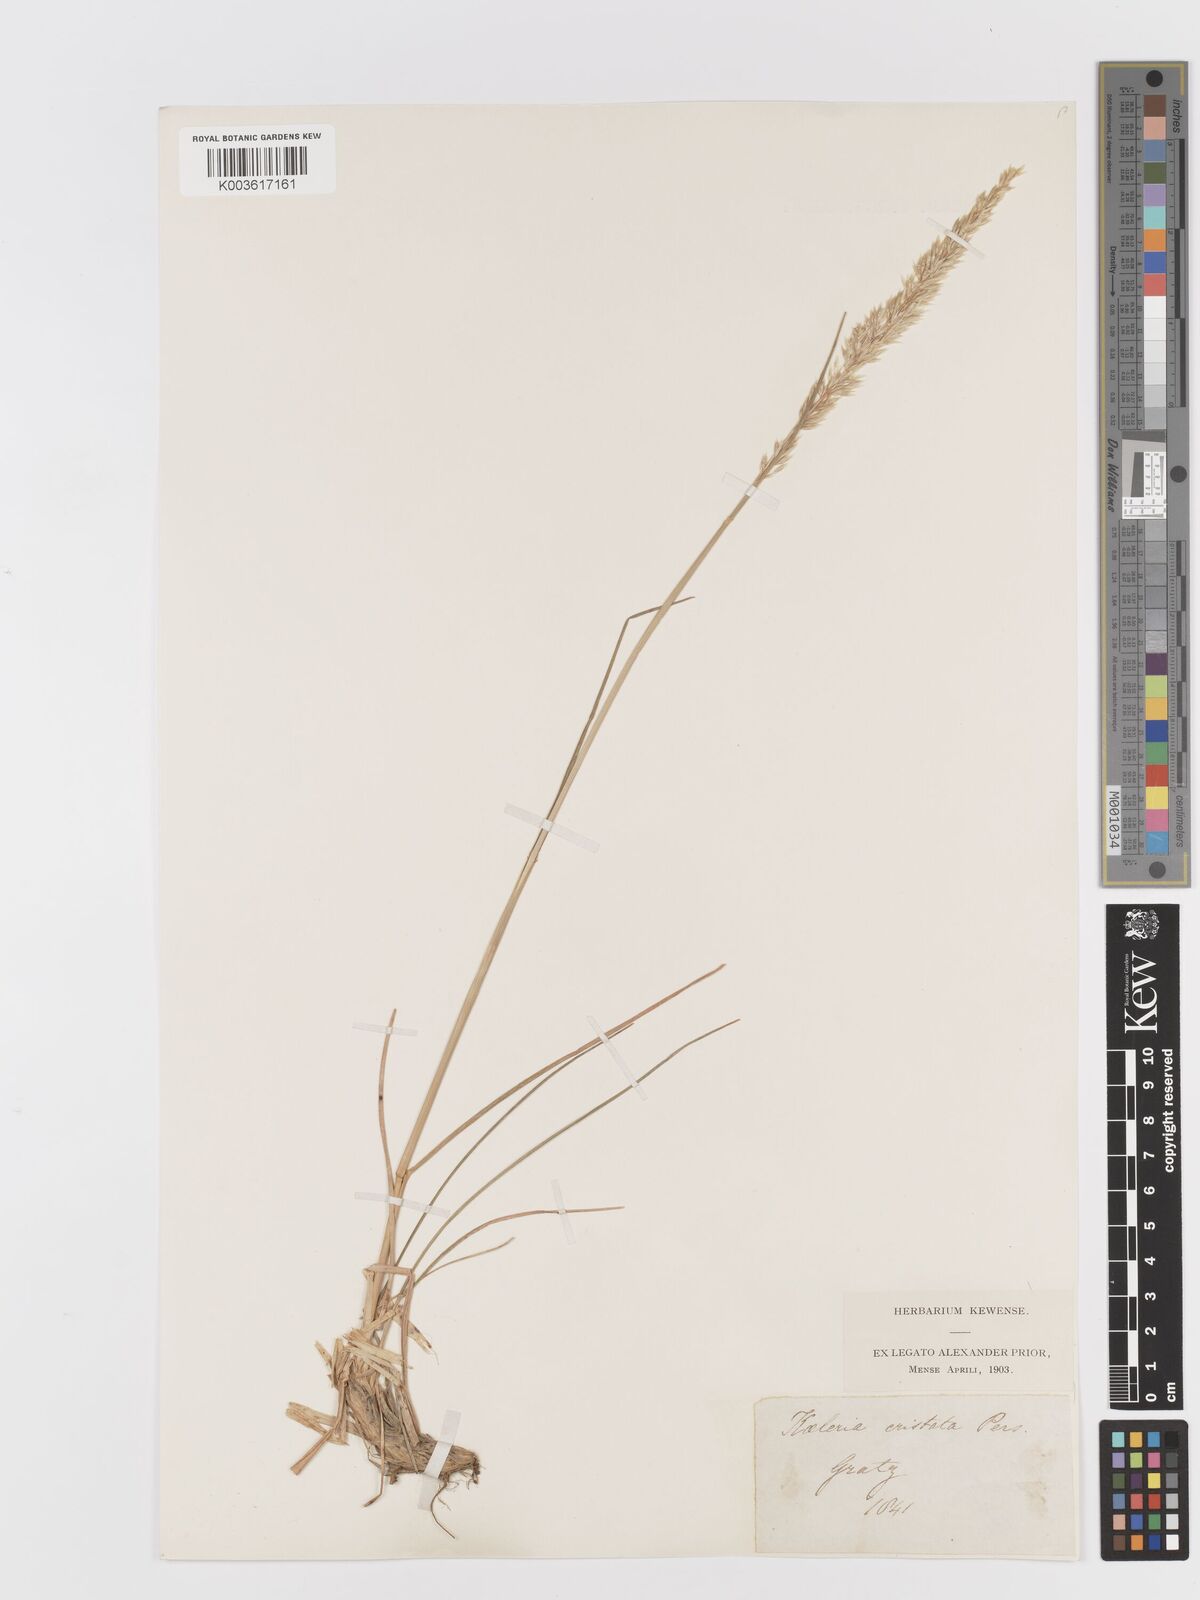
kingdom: Plantae
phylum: Tracheophyta
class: Liliopsida
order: Poales
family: Poaceae
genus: Koeleria
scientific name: Koeleria macrantha
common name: Crested hair-grass
